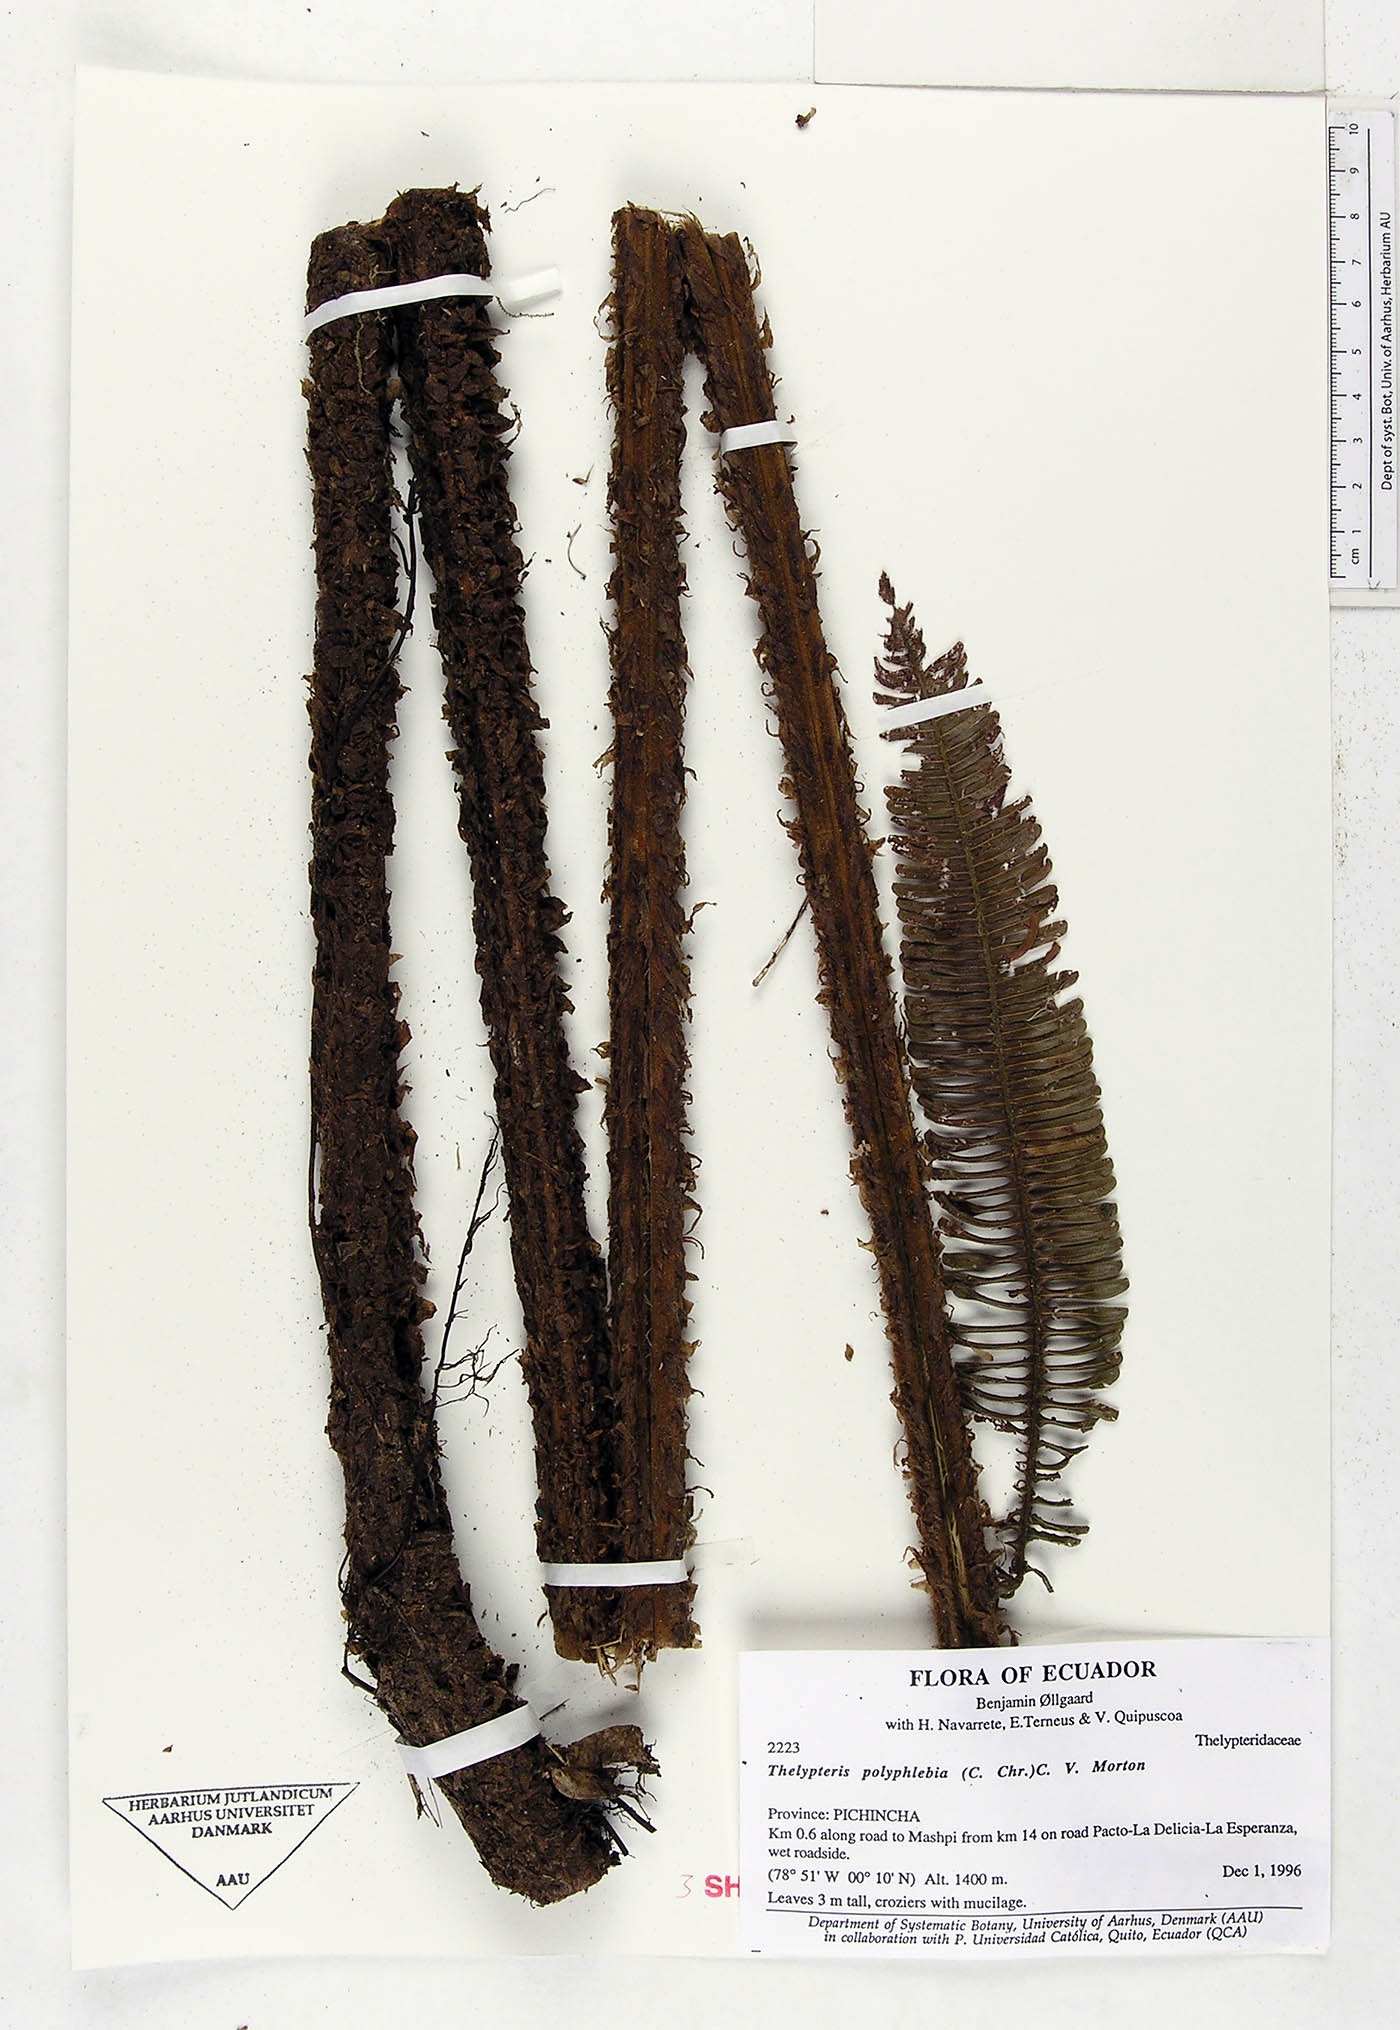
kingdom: Plantae
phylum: Tracheophyta
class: Polypodiopsida
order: Polypodiales
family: Thelypteridaceae
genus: Steiropteris
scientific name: Steiropteris polyphlebia
